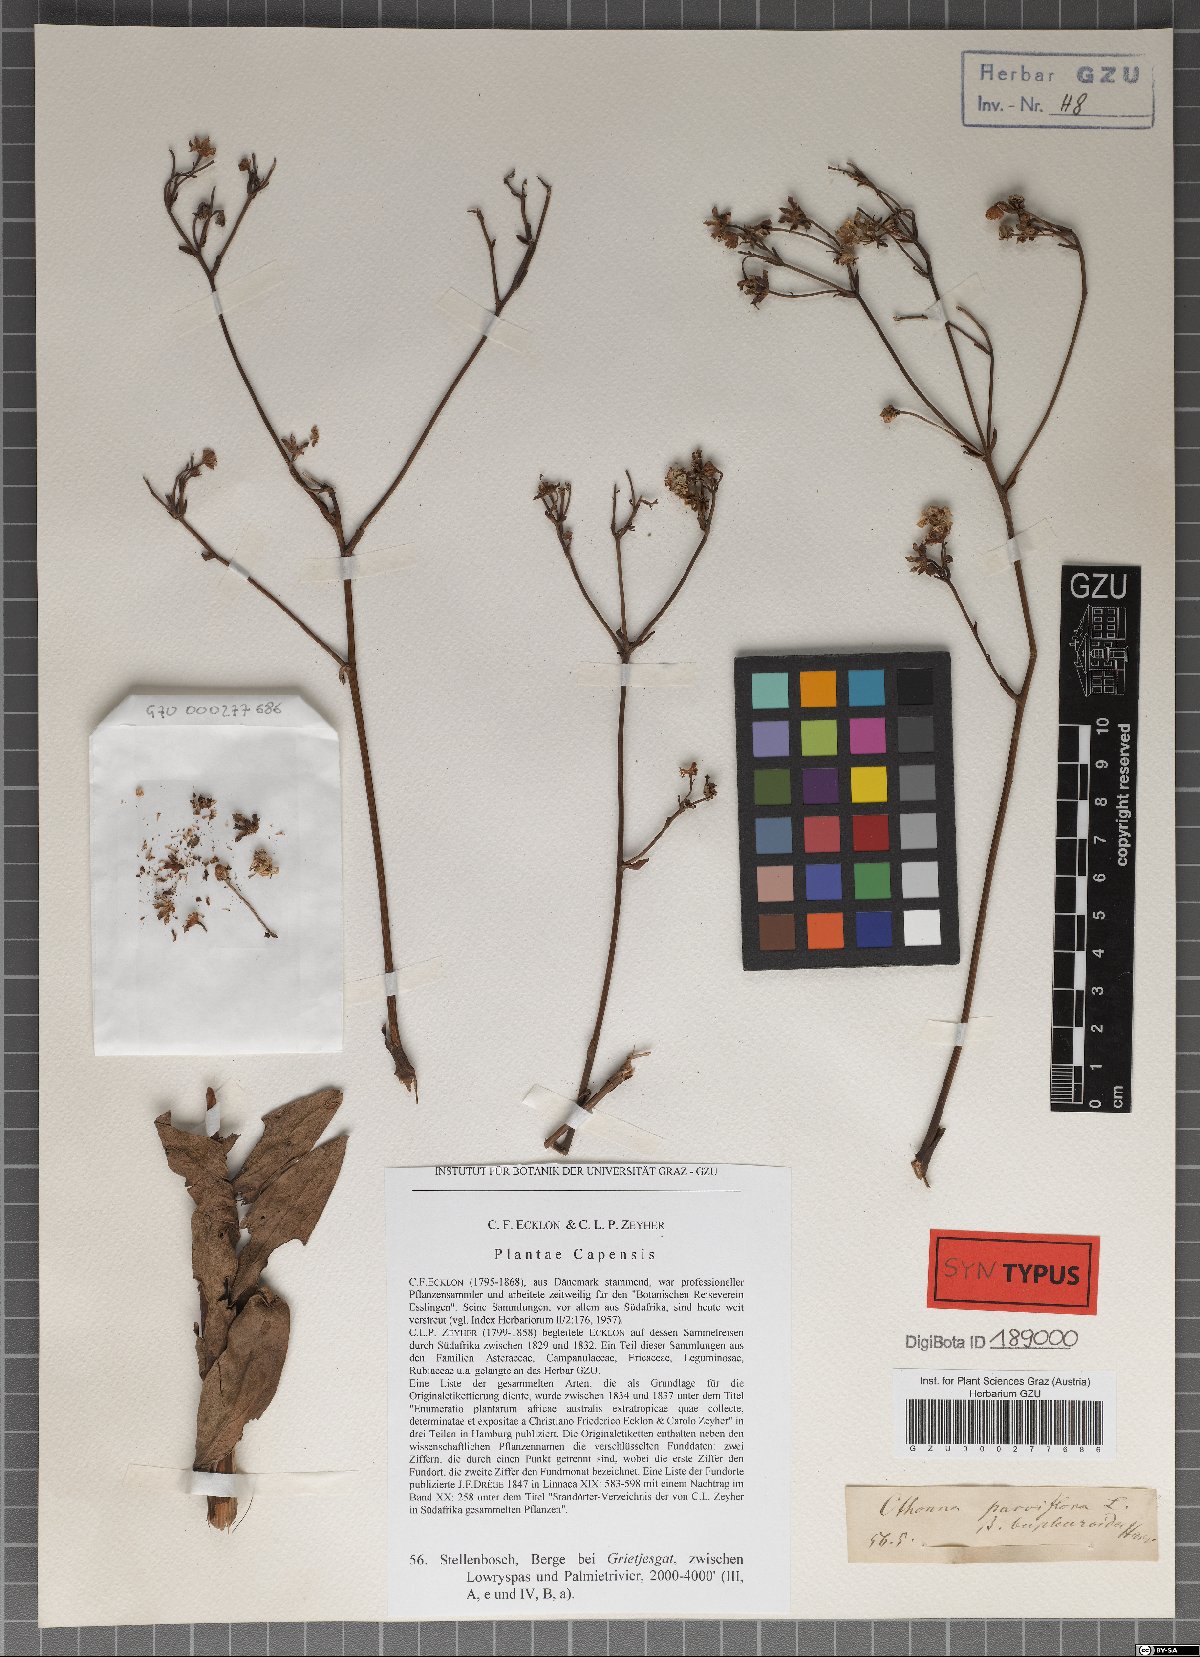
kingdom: Plantae
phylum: Tracheophyta
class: Magnoliopsida
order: Asterales
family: Asteraceae
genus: Othonna
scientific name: Othonna parviflora
